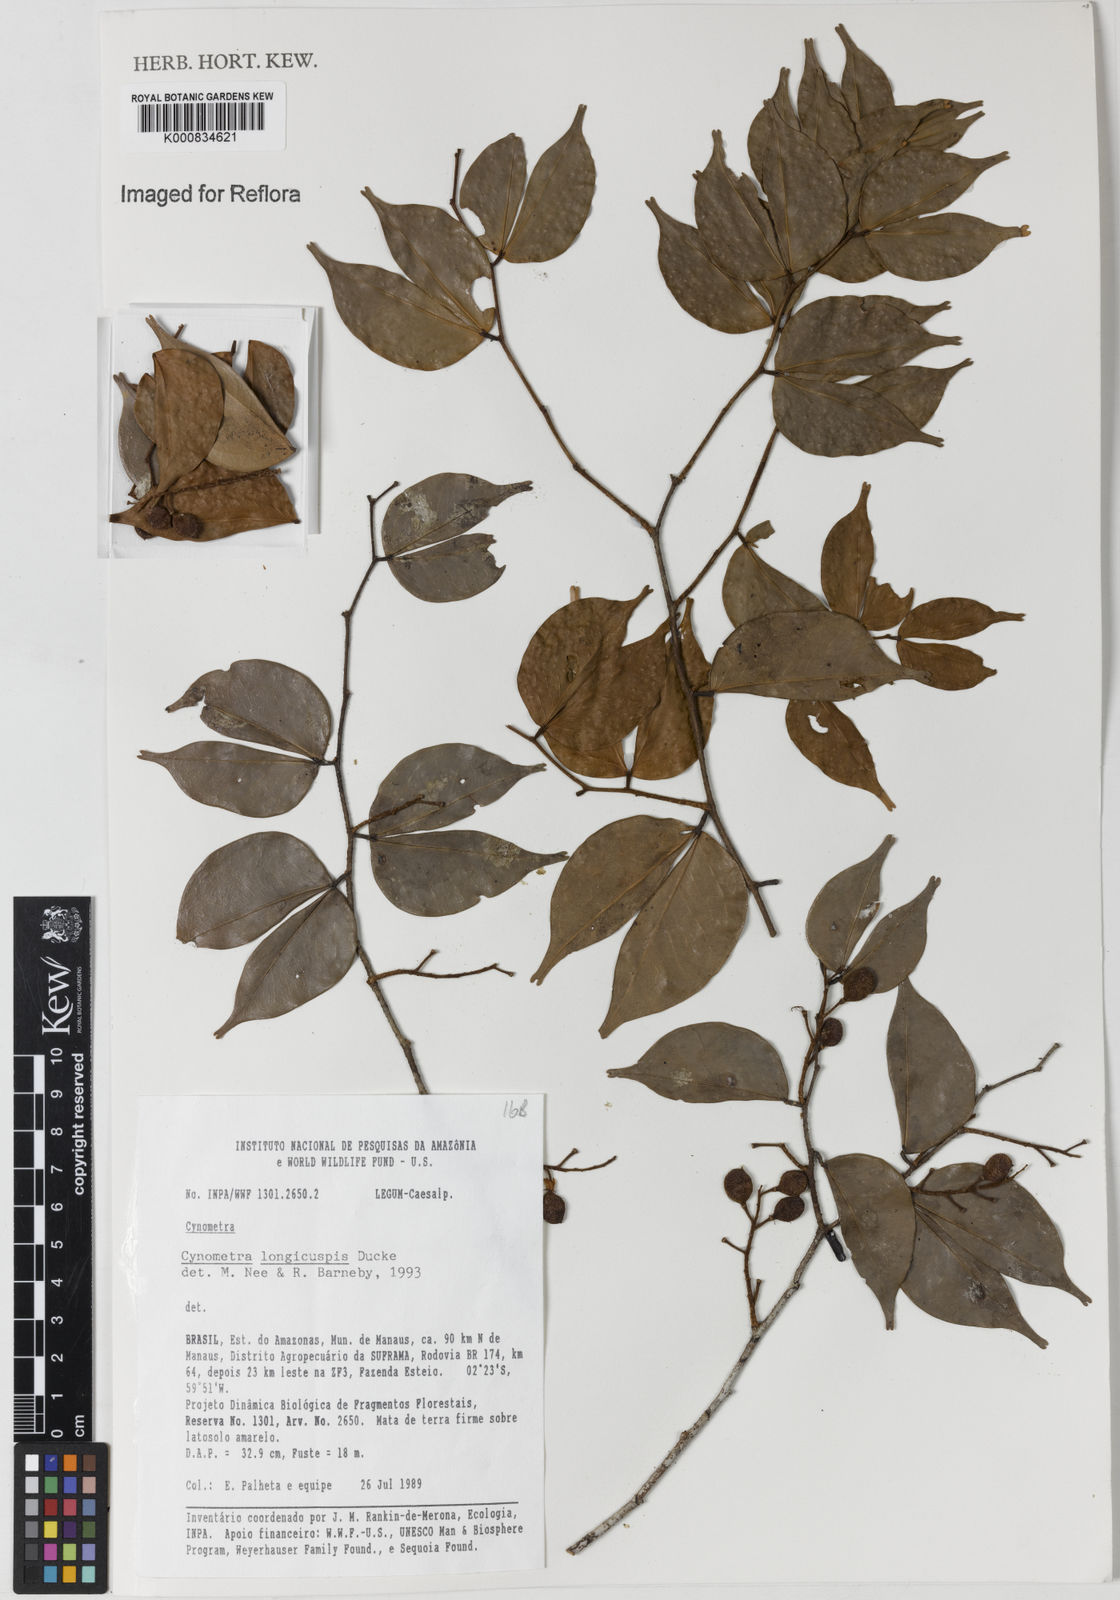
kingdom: Plantae
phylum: Tracheophyta
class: Magnoliopsida
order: Fabales
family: Fabaceae
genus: Cynometra
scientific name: Cynometra longicuspis
